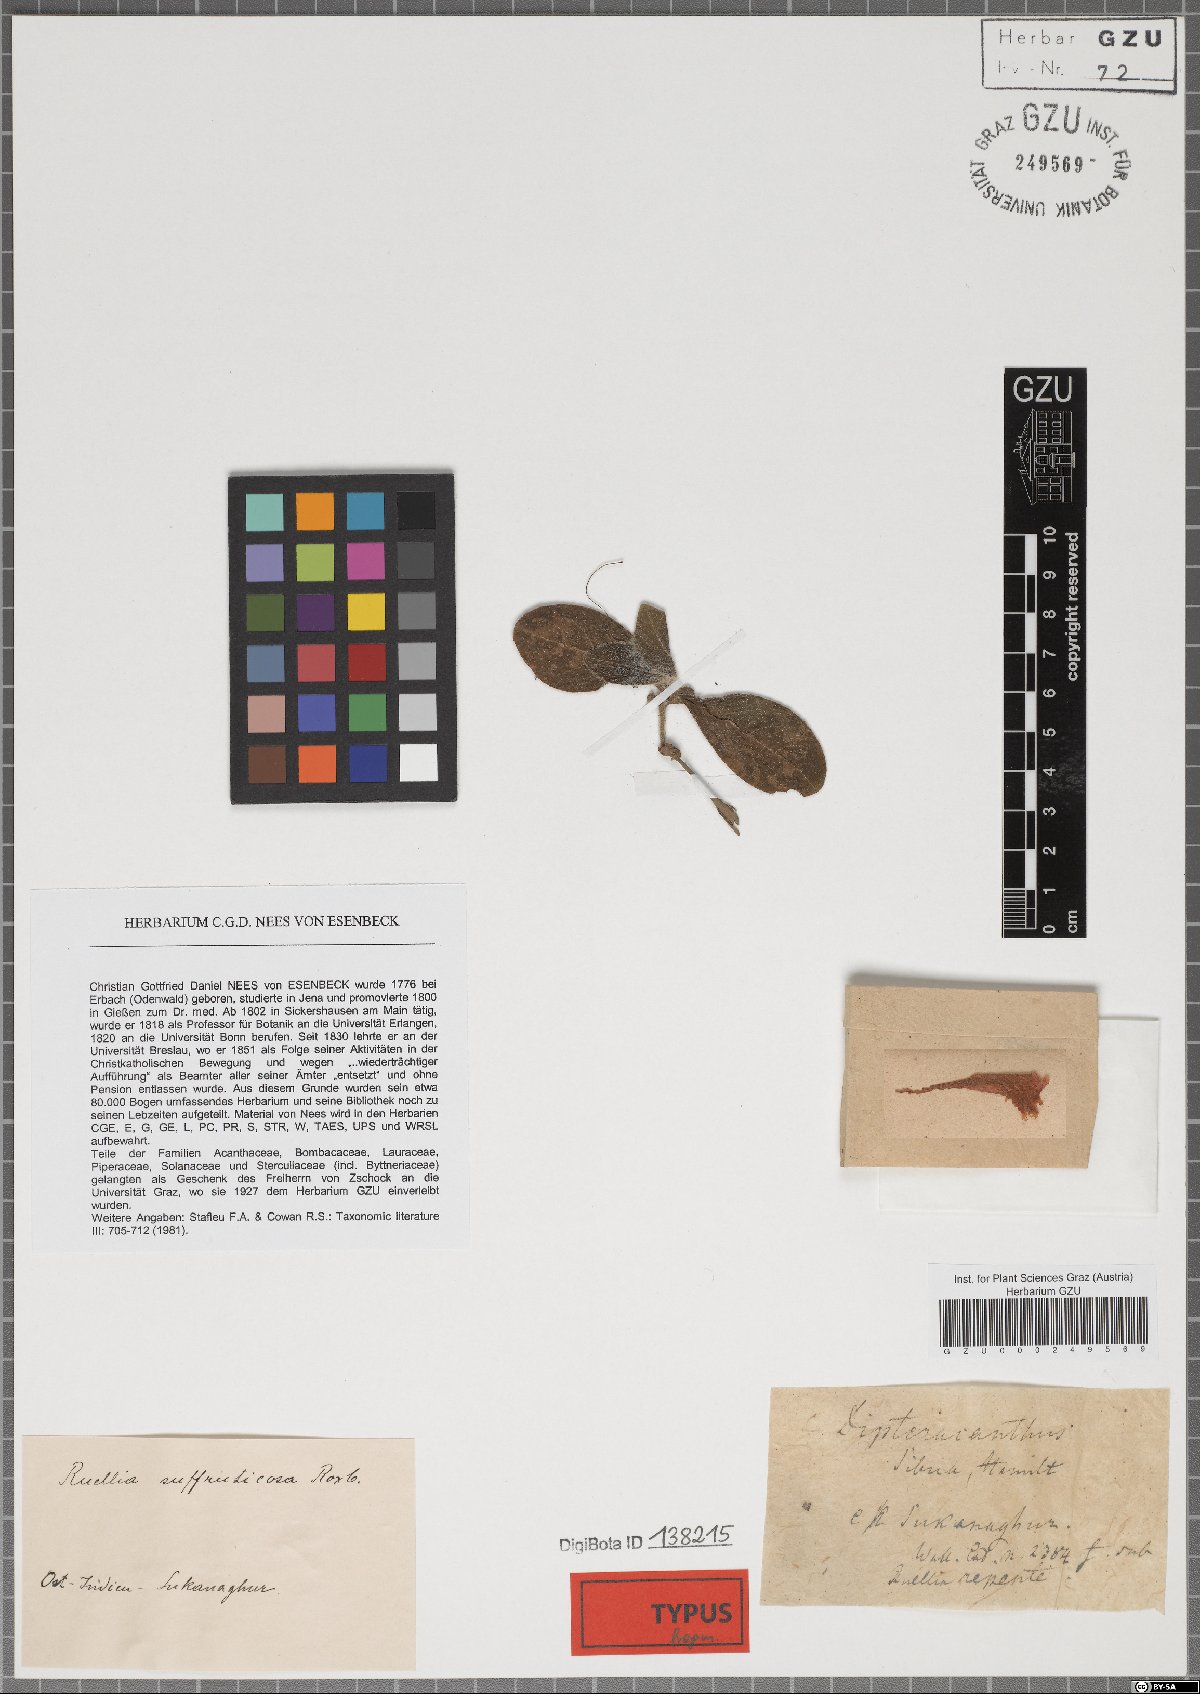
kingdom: Plantae
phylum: Tracheophyta
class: Magnoliopsida
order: Lamiales
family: Acanthaceae
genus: Ruellia
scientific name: Ruellia sibua
